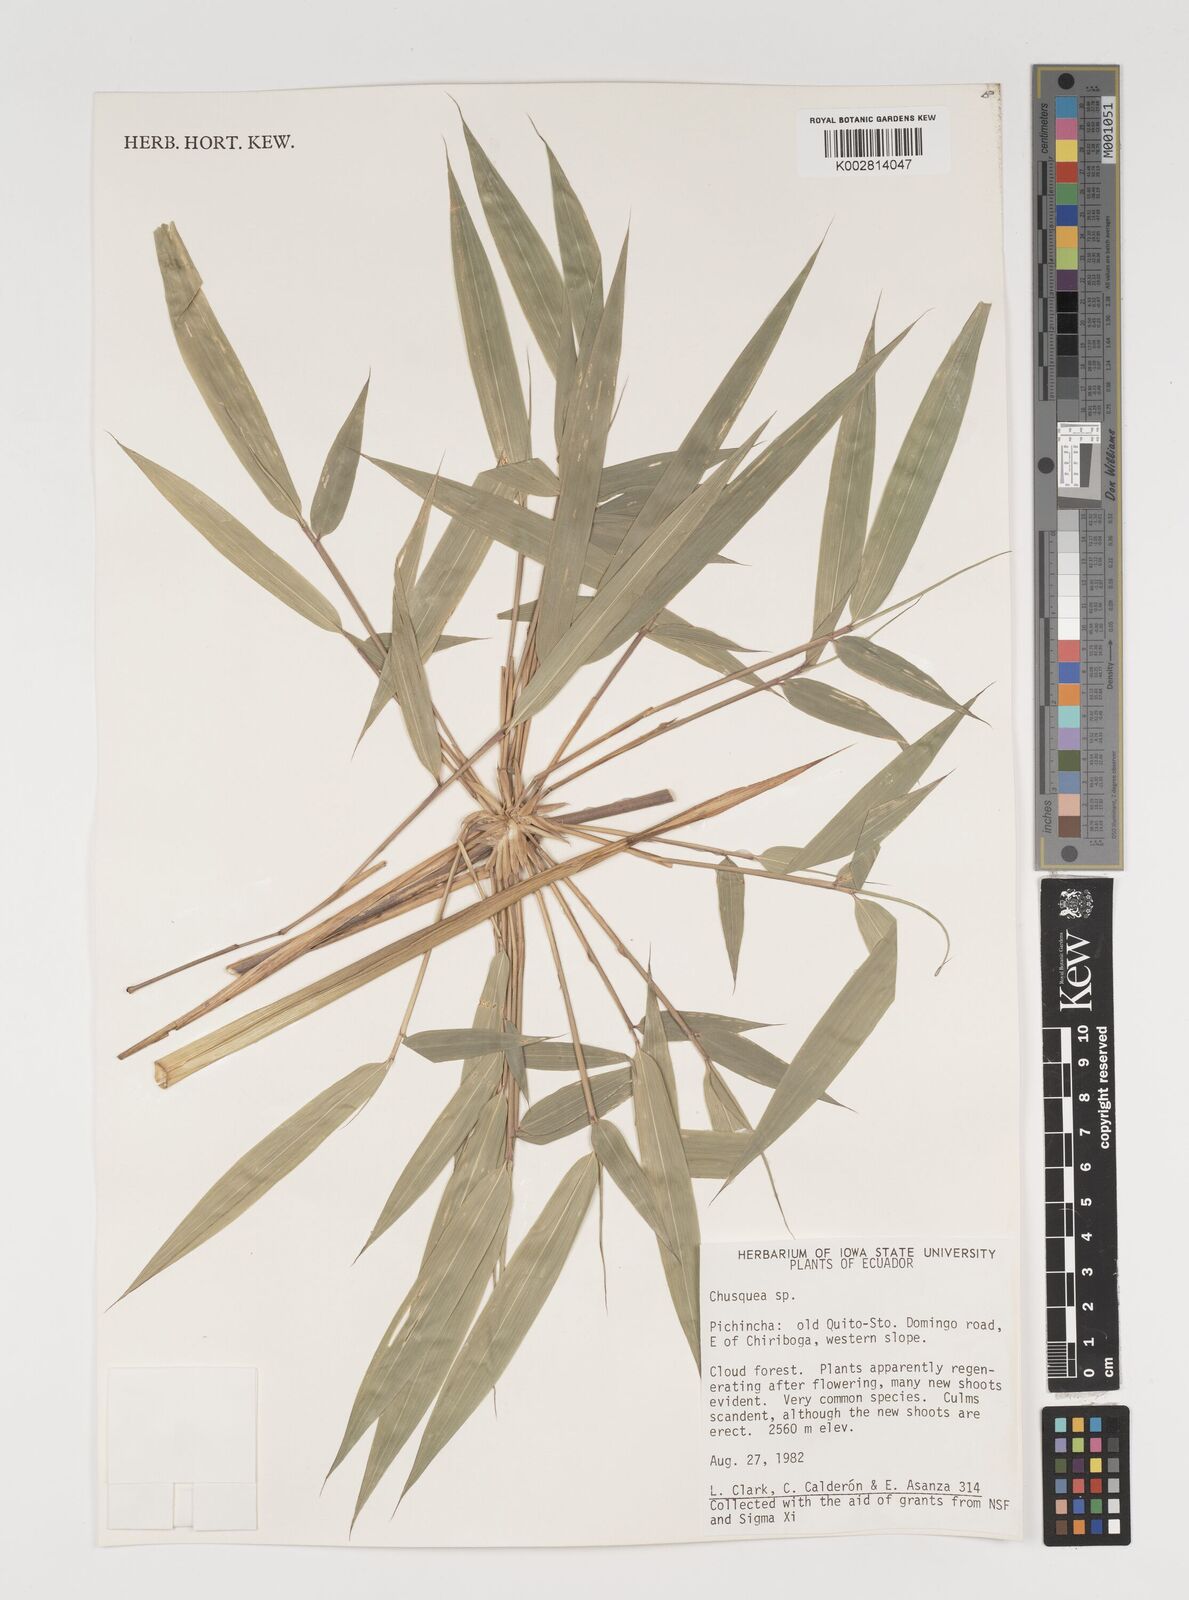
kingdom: Plantae
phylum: Tracheophyta
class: Liliopsida
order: Poales
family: Poaceae
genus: Chusquea
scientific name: Chusquea
